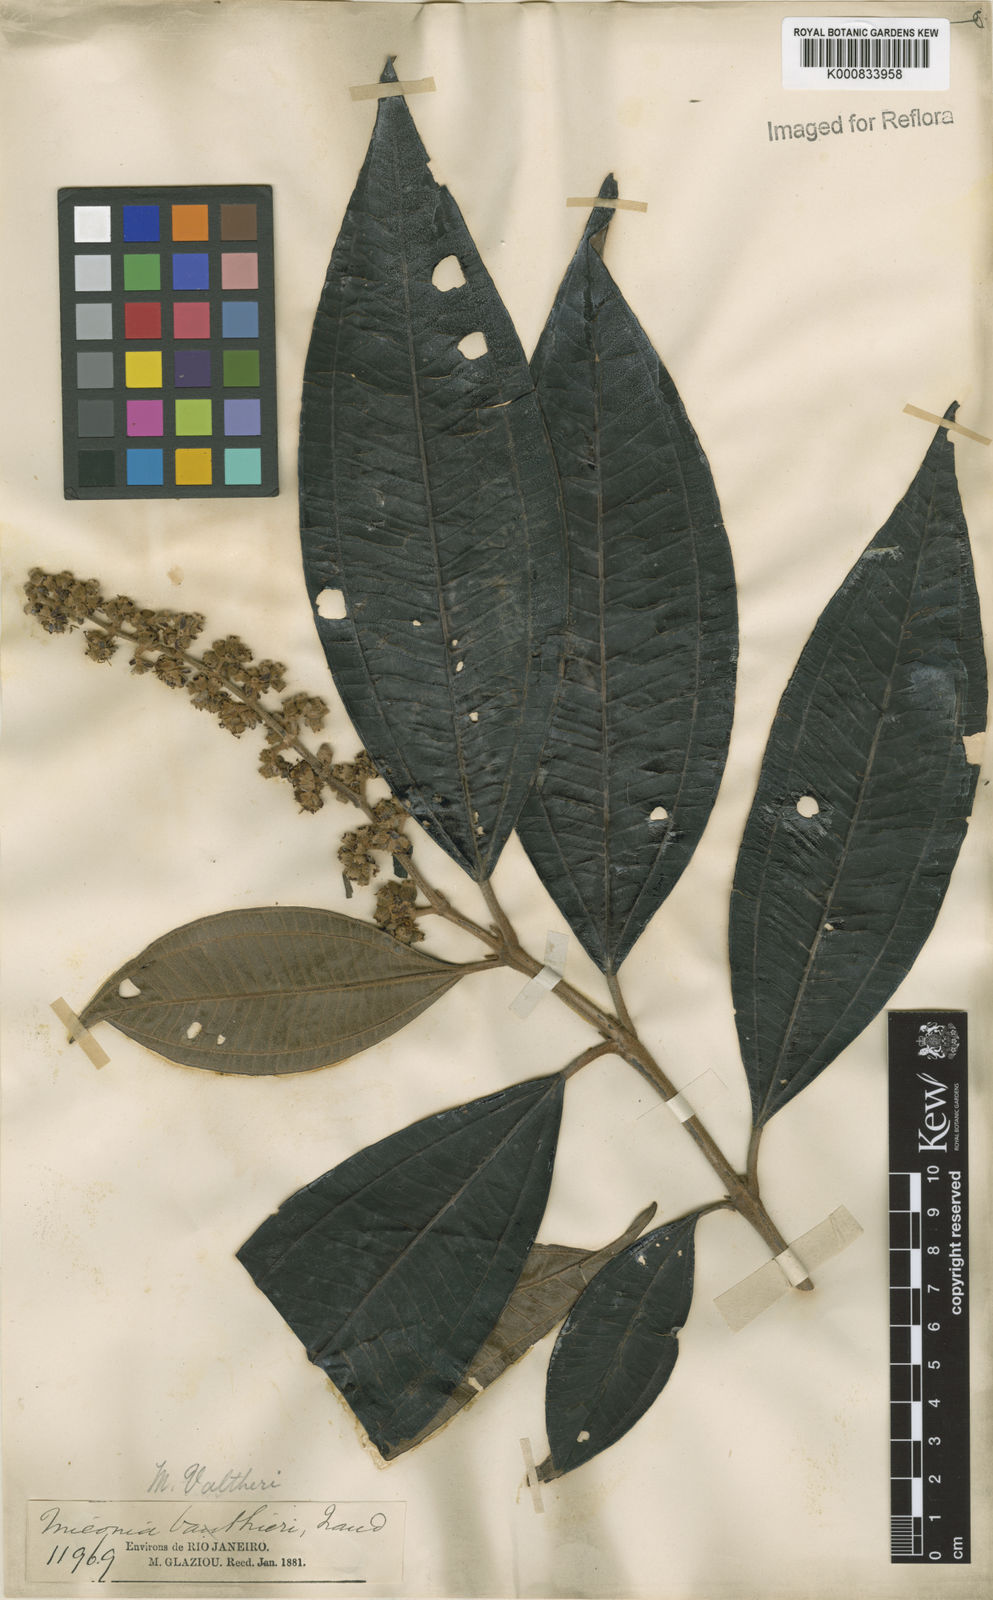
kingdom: Plantae
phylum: Tracheophyta
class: Magnoliopsida
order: Myrtales
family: Melastomataceae
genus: Miconia
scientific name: Miconia valtheri
